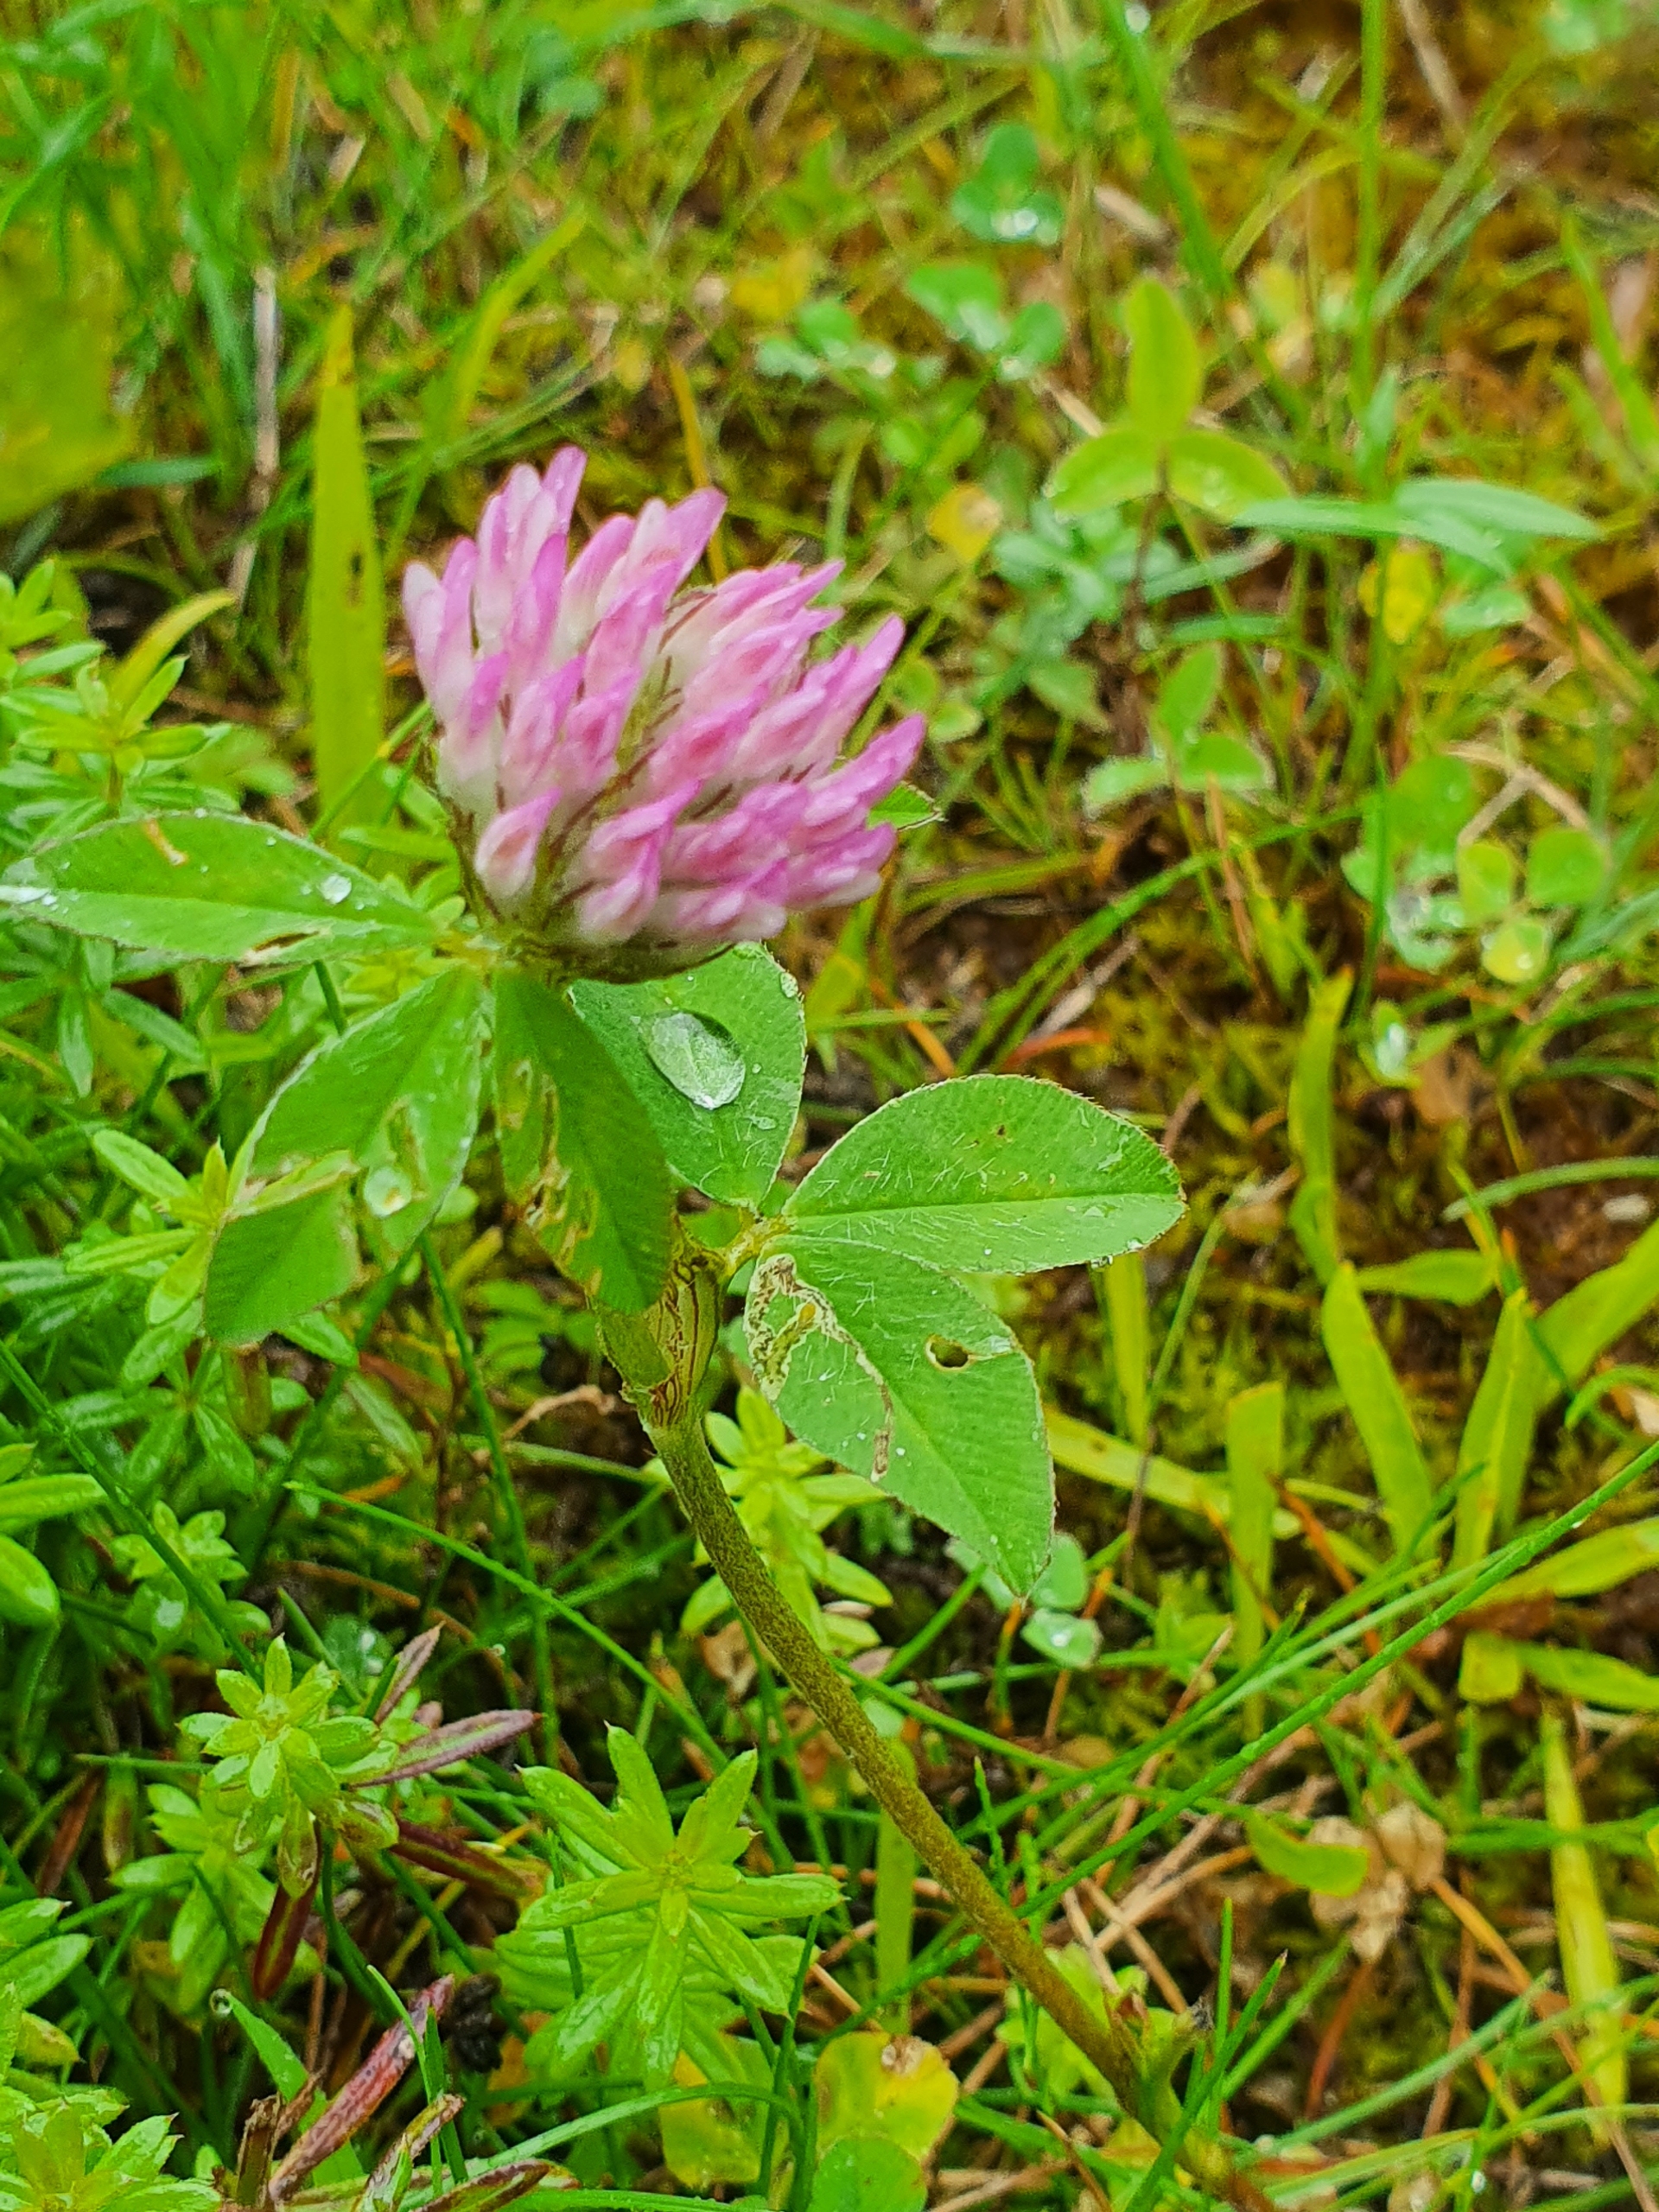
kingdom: Plantae
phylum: Tracheophyta
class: Magnoliopsida
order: Fabales
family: Fabaceae
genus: Trifolium
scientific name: Trifolium pratense
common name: Rød-kløver
